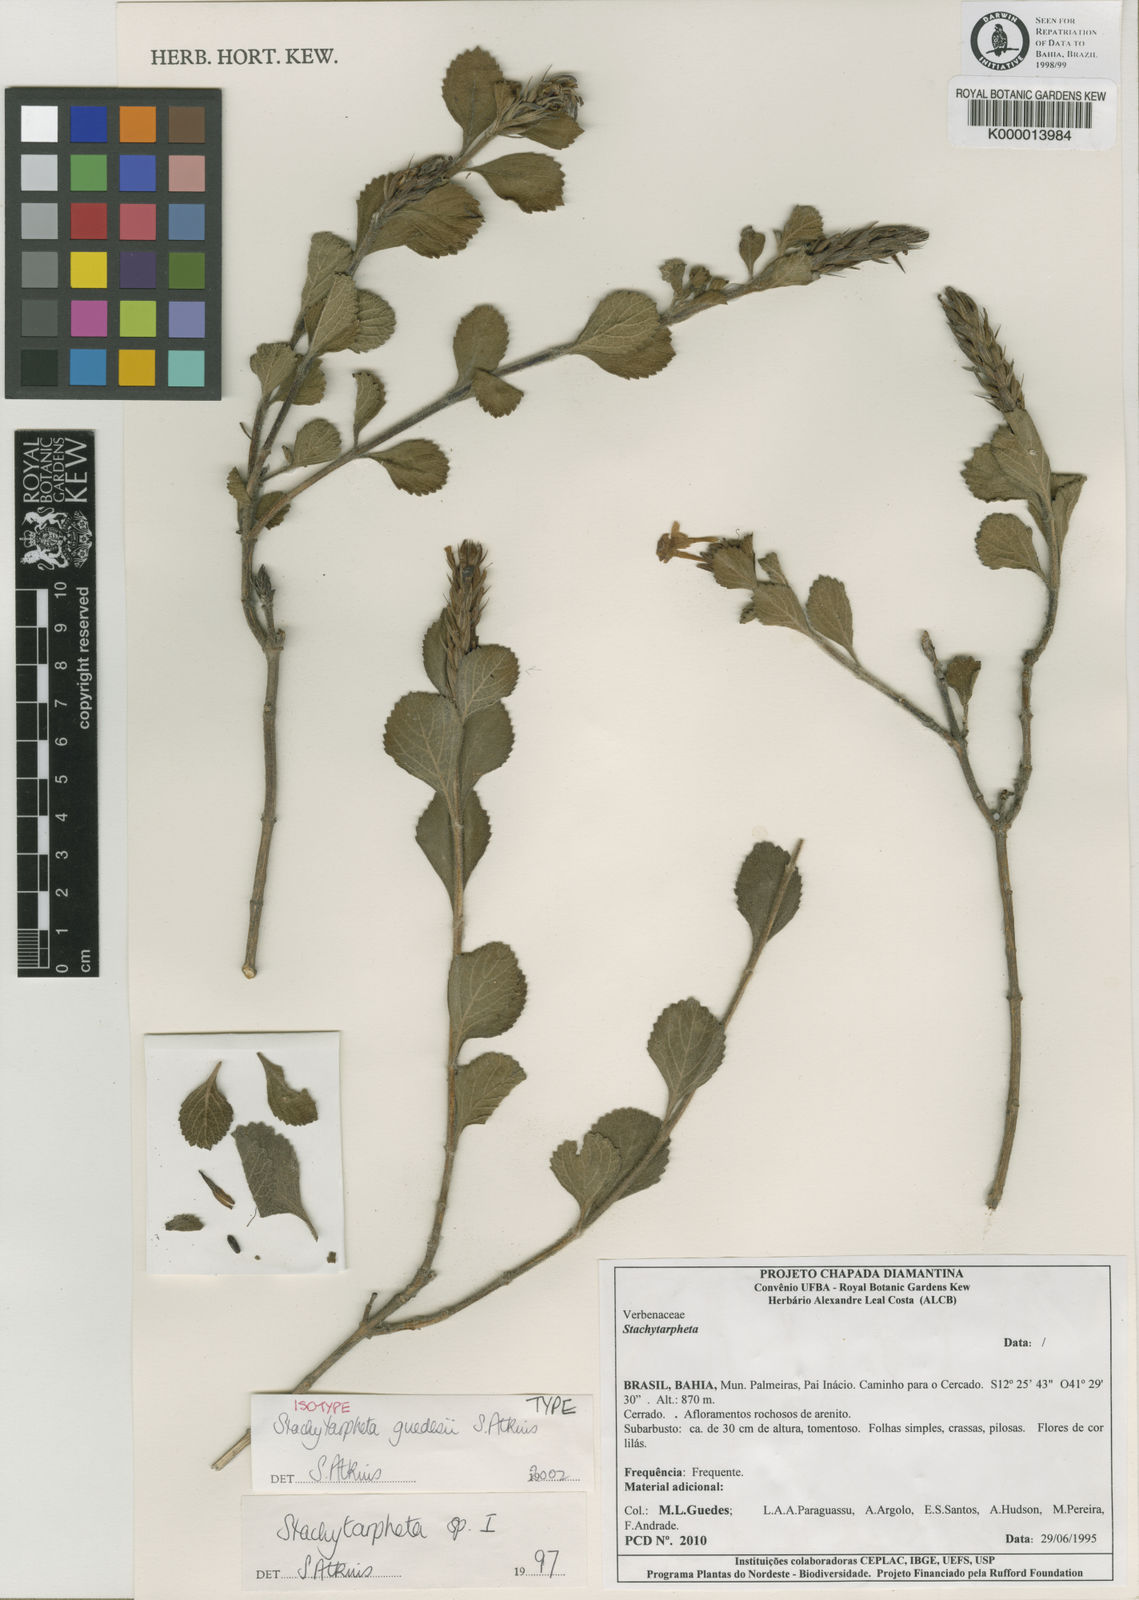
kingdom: Plantae
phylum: Tracheophyta
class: Magnoliopsida
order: Lamiales
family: Verbenaceae
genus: Stachytarpheta
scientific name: Stachytarpheta guedesii
